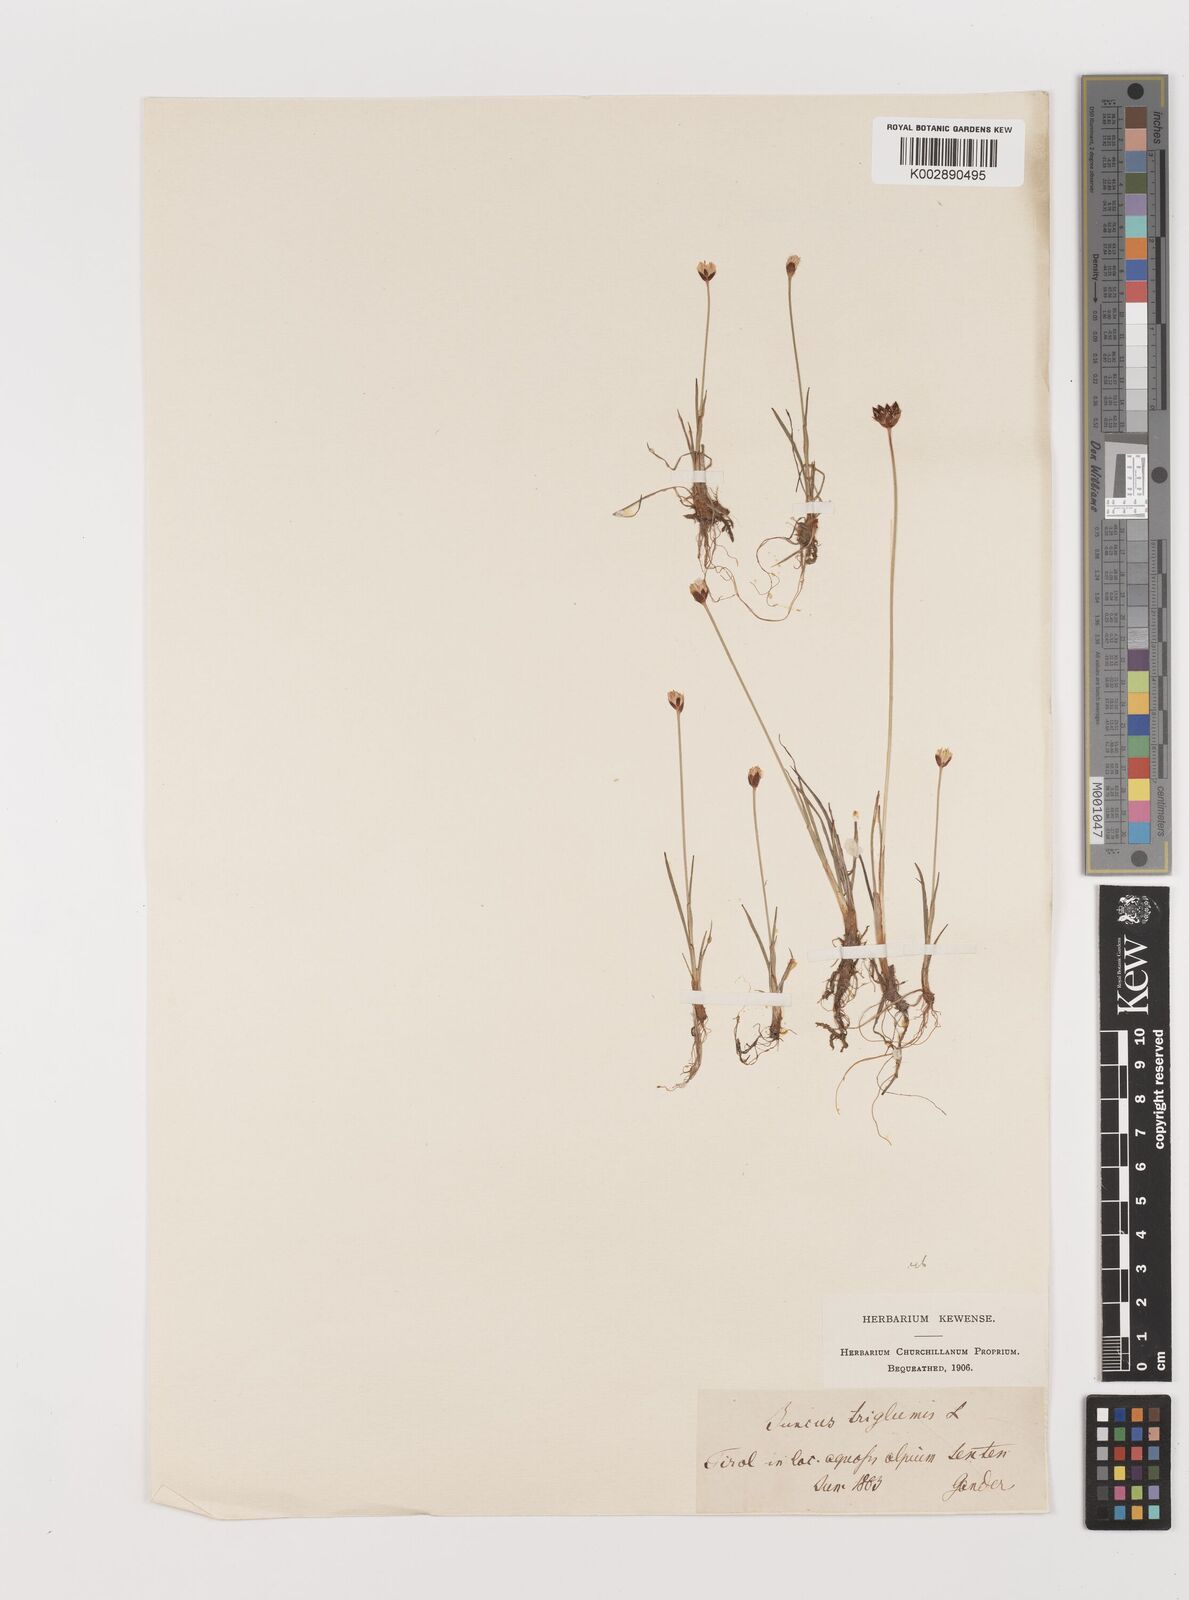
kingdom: Plantae
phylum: Tracheophyta
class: Liliopsida
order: Poales
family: Juncaceae
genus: Juncus
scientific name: Juncus triglumis
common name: Three-flowered rush
